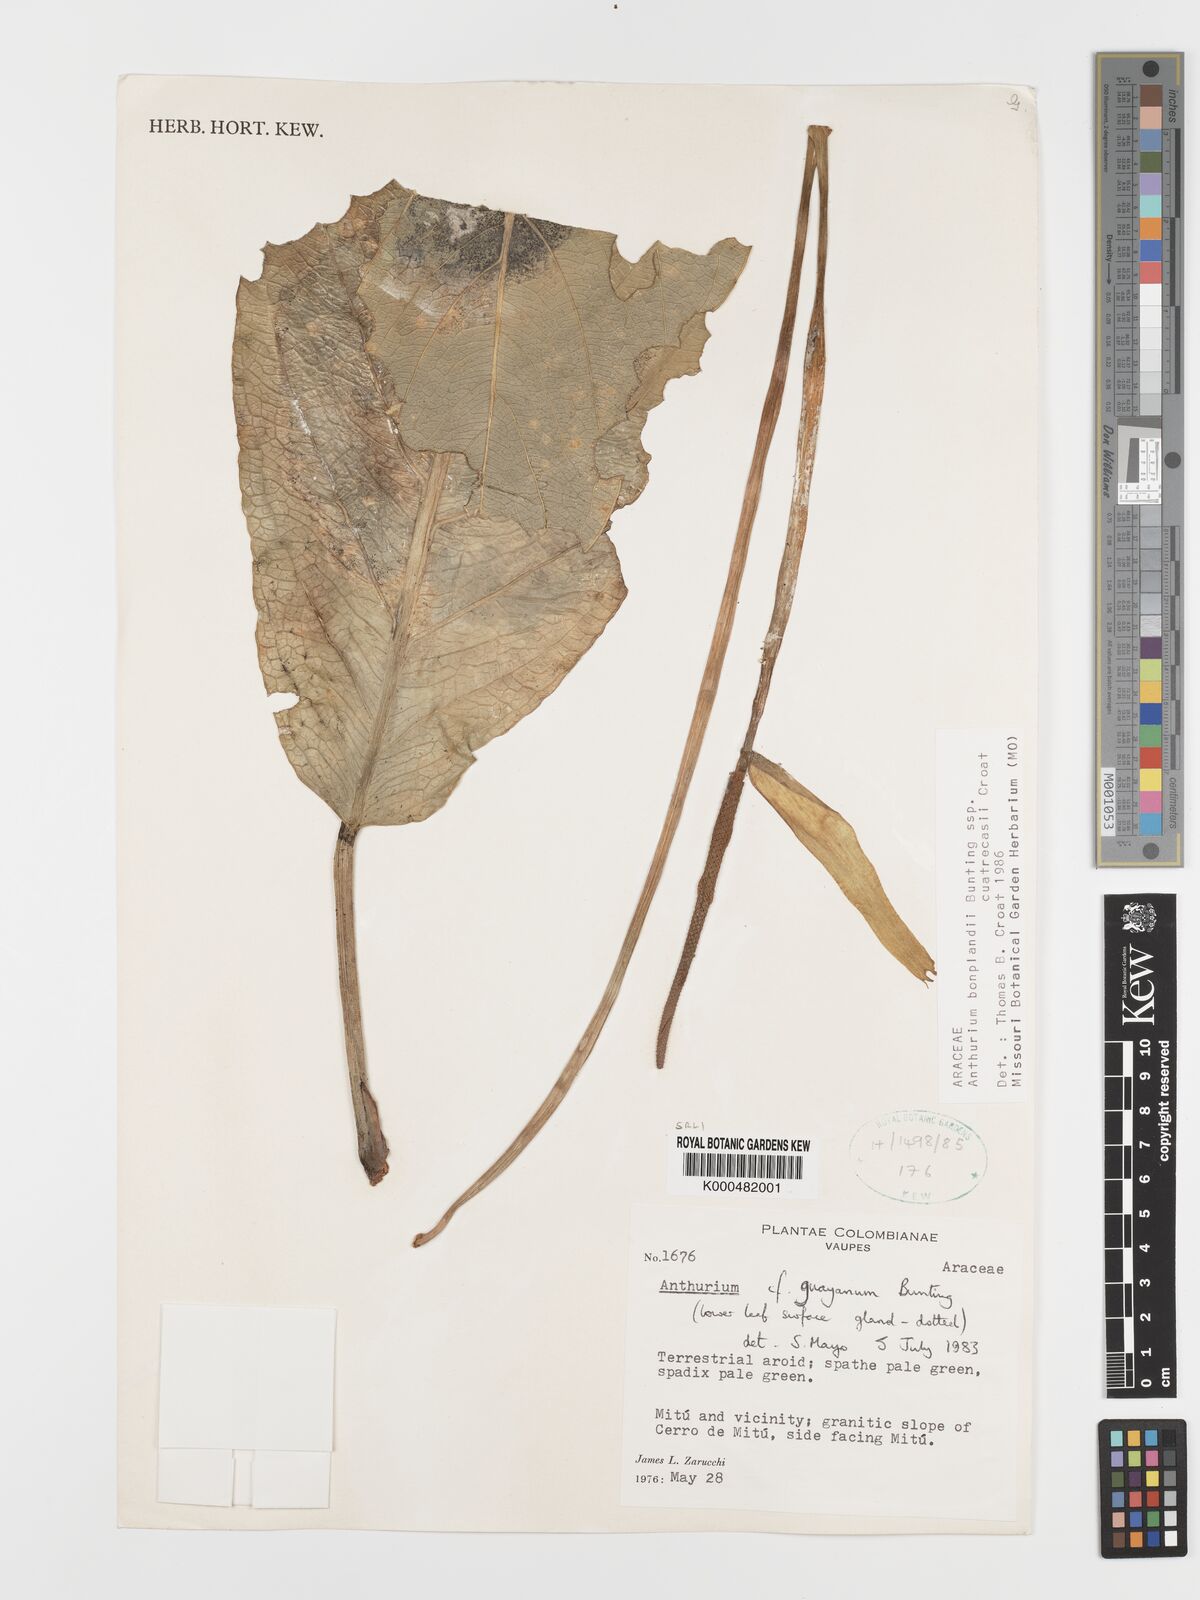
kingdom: Plantae
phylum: Tracheophyta
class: Liliopsida
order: Alismatales
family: Araceae
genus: Anthurium
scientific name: Anthurium
